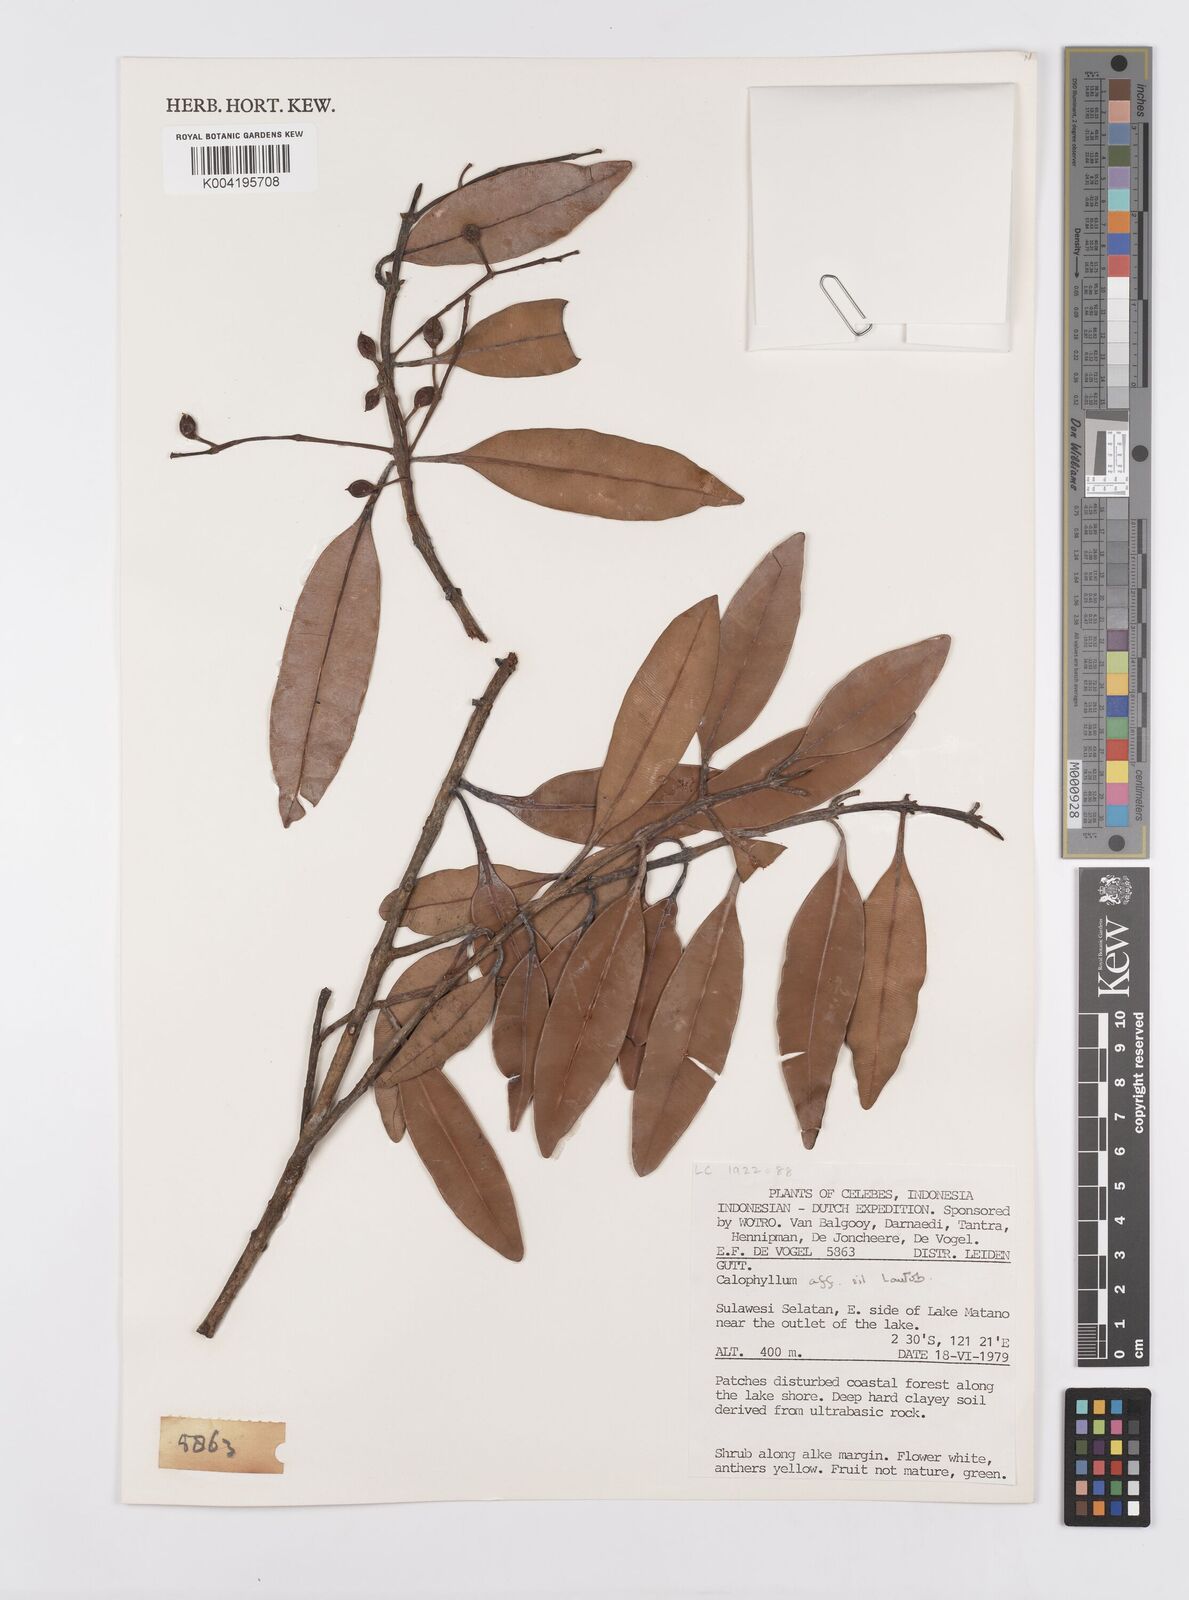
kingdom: Plantae
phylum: Tracheophyta
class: Magnoliopsida
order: Malpighiales
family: Calophyllaceae
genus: Calophyllum
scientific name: Calophyllum
